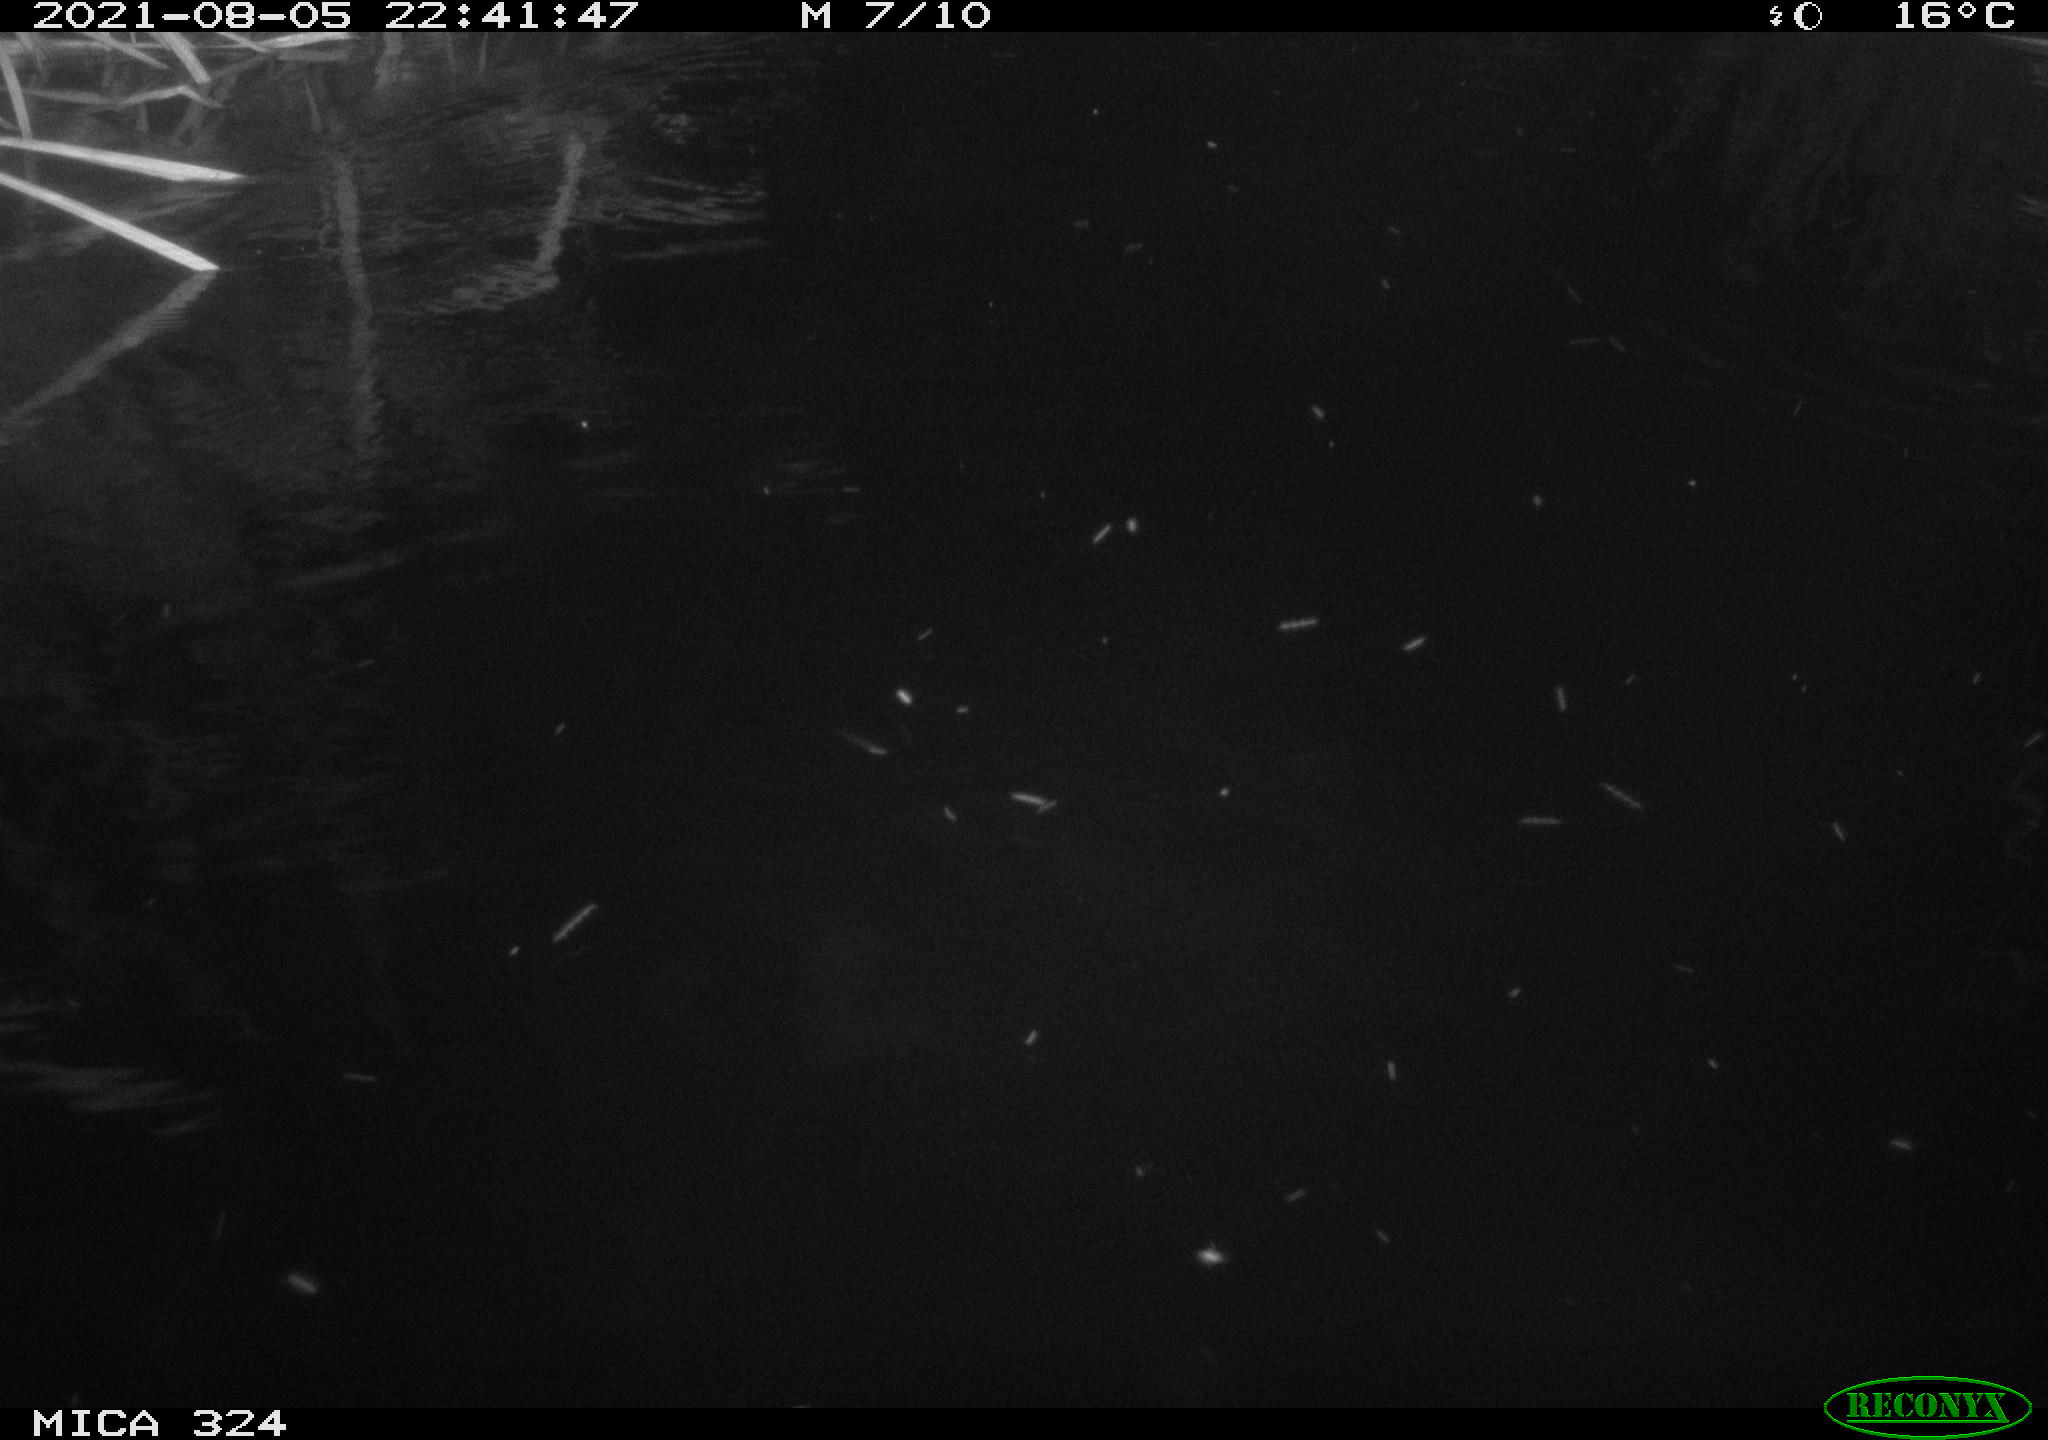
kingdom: Animalia
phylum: Chordata
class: Mammalia
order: Rodentia
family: Cricetidae
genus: Ondatra
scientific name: Ondatra zibethicus
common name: Muskrat
